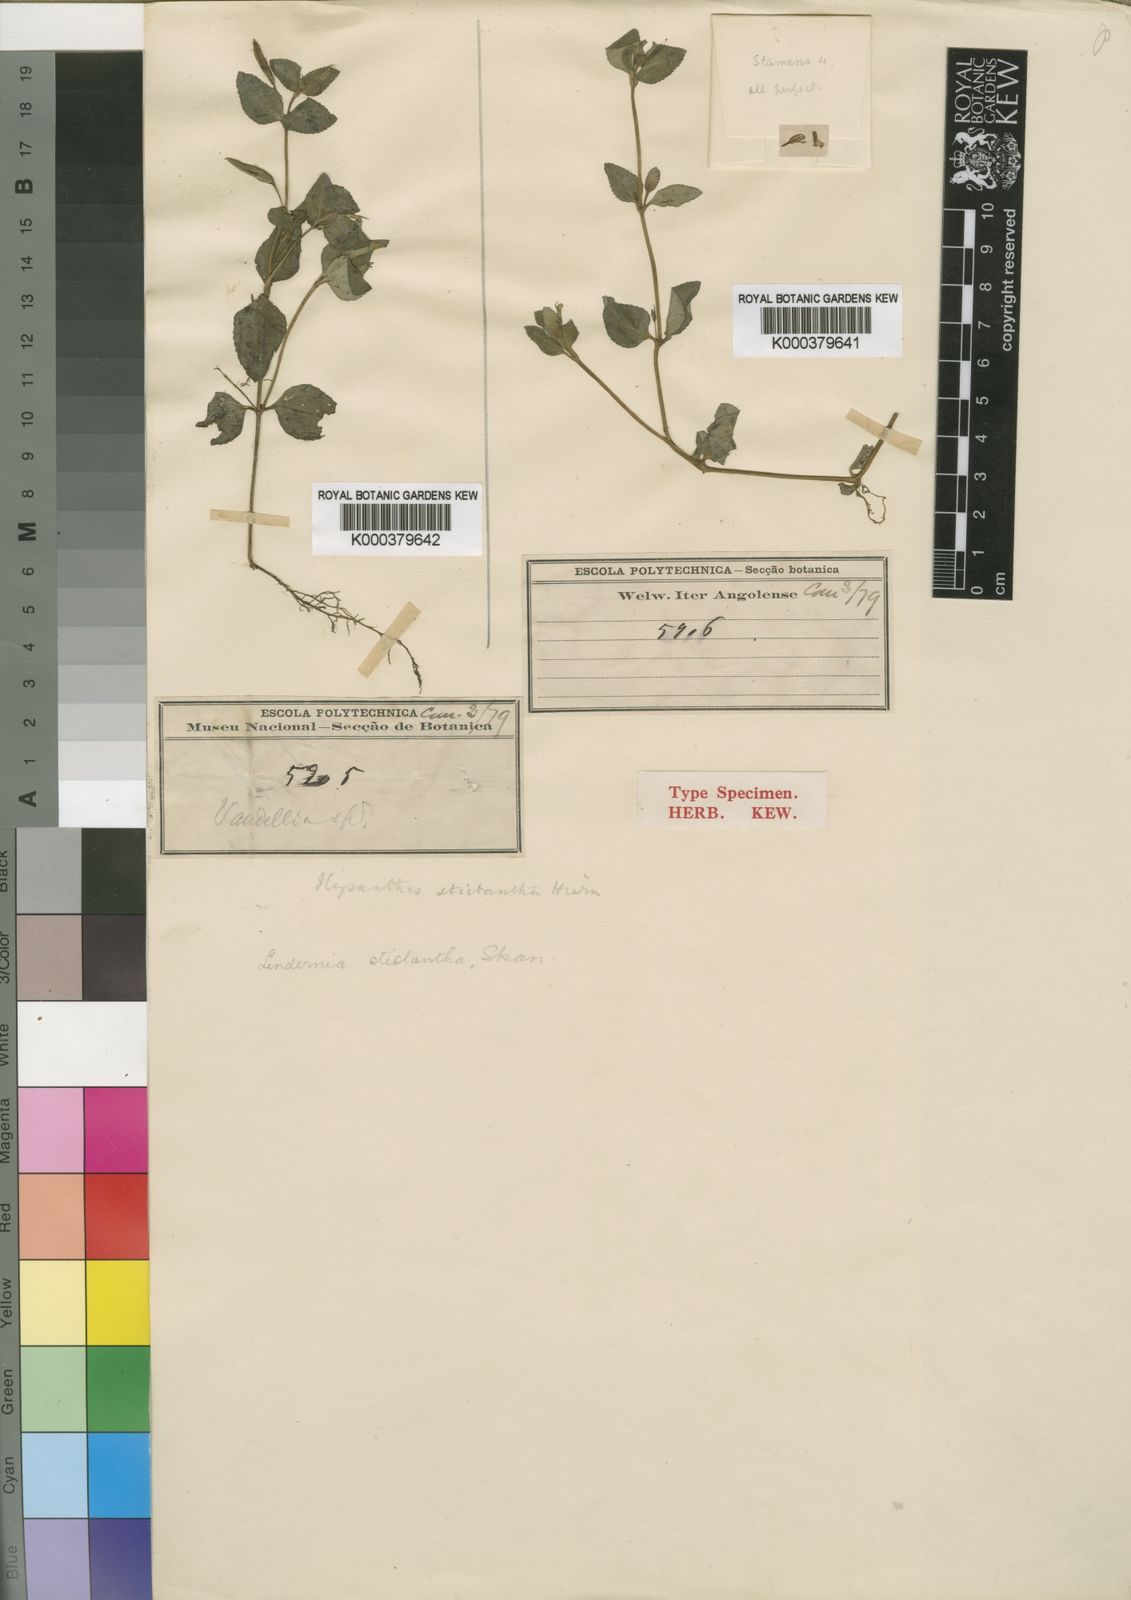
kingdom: Plantae
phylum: Tracheophyta
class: Magnoliopsida
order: Lamiales
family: Linderniaceae
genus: Vandellia
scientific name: Vandellia stictantha
